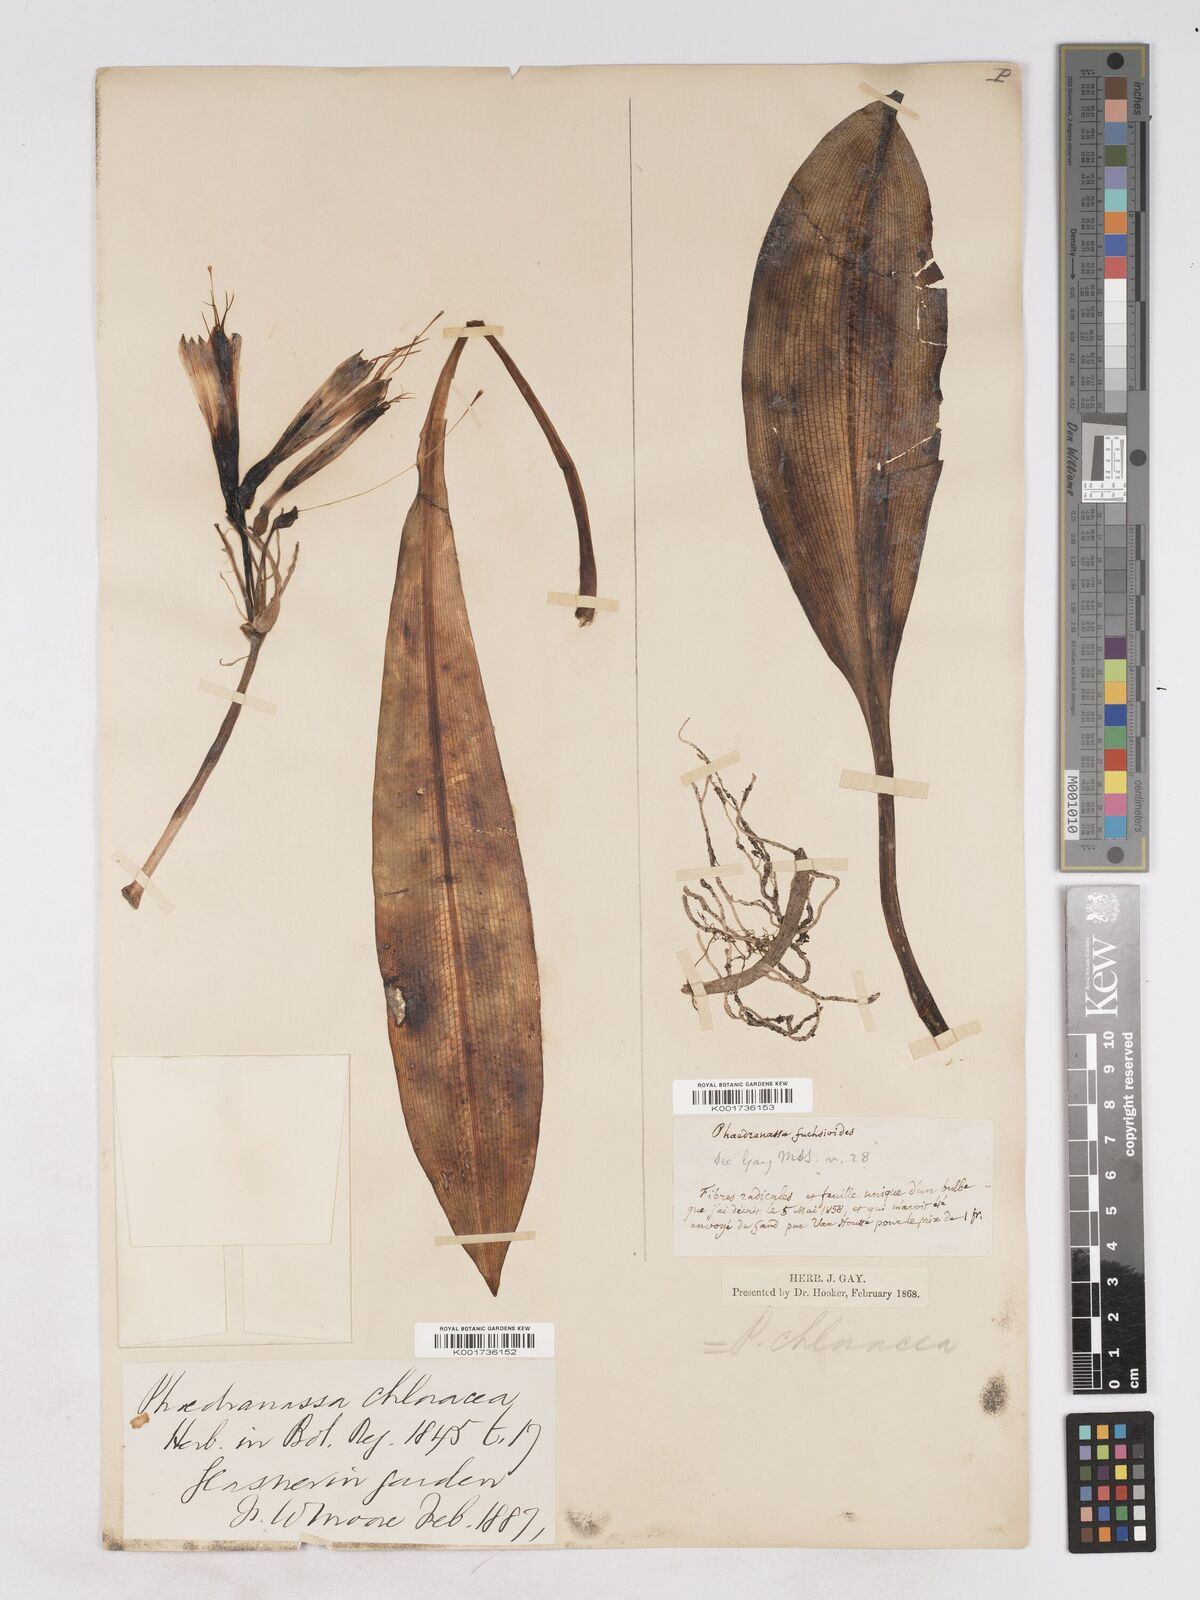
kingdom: Plantae
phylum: Tracheophyta
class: Liliopsida
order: Asparagales
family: Amaryllidaceae
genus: Phaedranassa
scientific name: Phaedranassa dubia
